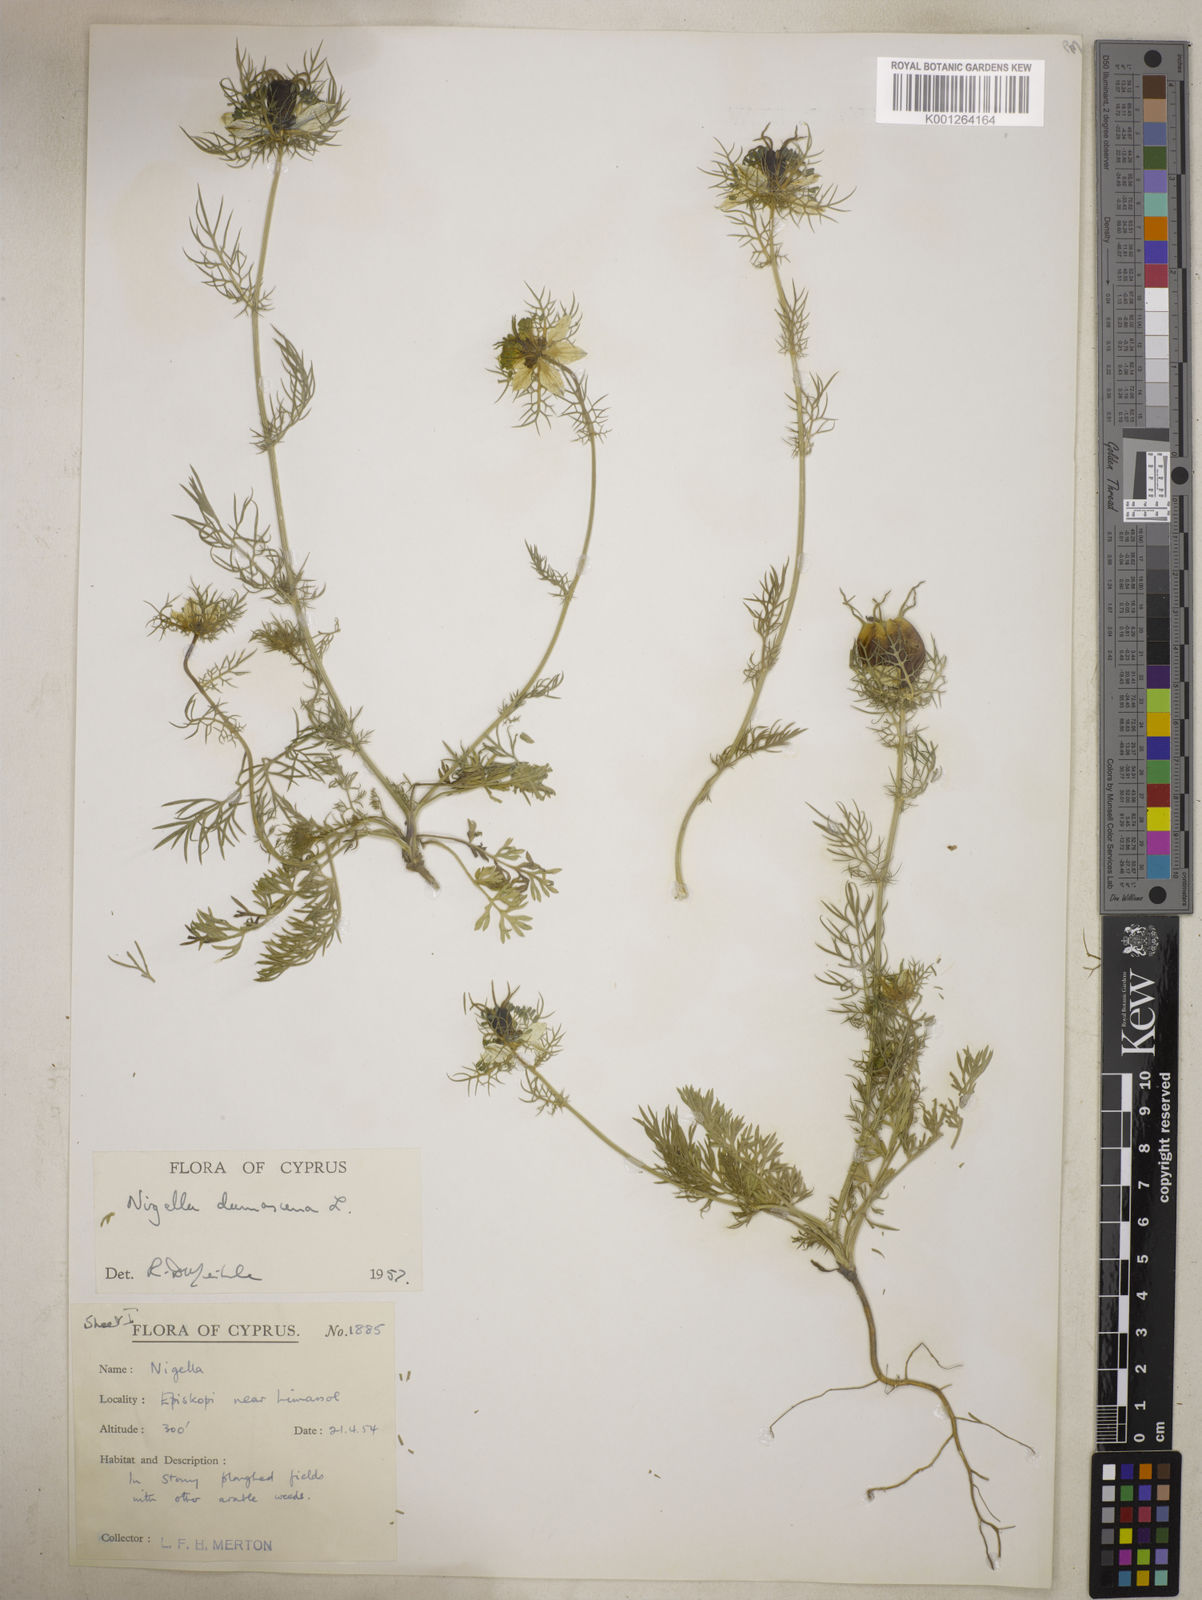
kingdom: Plantae
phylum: Tracheophyta
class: Magnoliopsida
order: Ranunculales
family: Ranunculaceae
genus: Nigella
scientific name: Nigella damascena
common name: Love-in-a-mist
